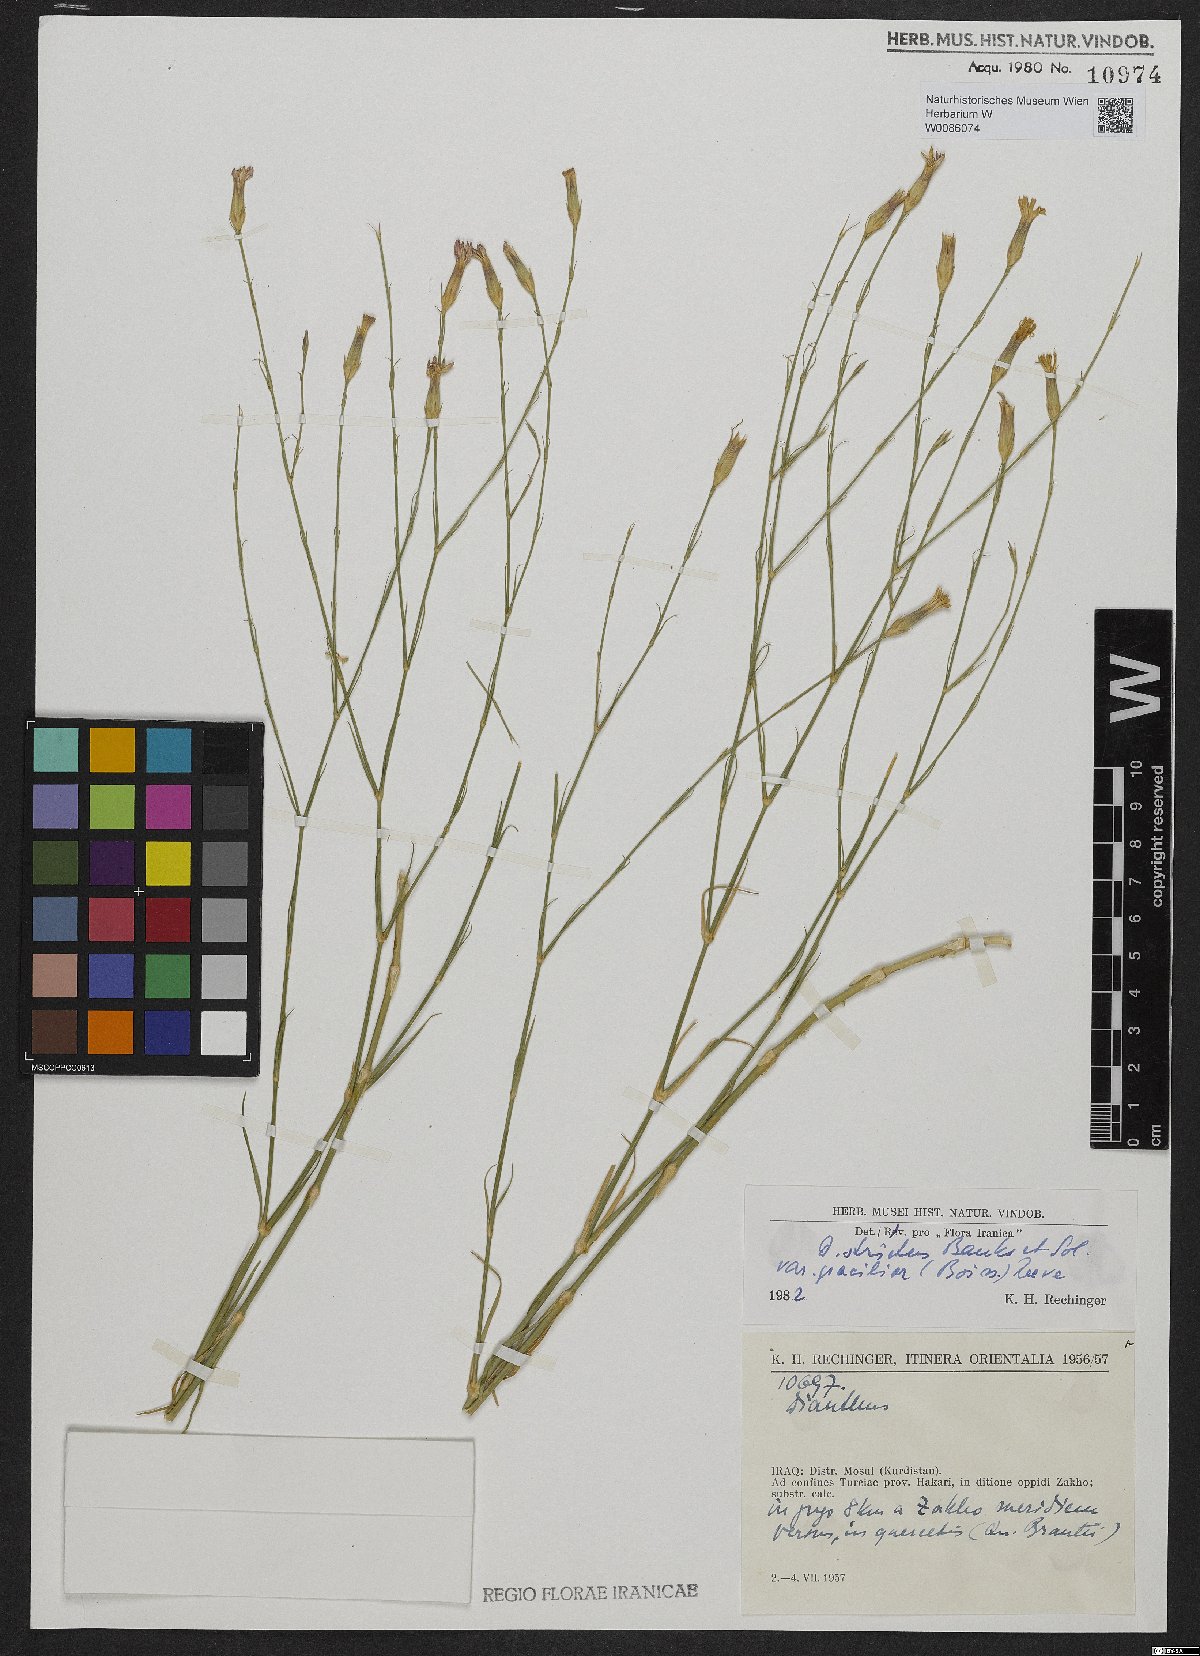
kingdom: Plantae
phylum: Tracheophyta
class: Magnoliopsida
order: Caryophyllales
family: Caryophyllaceae
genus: Dianthus
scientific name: Dianthus strictus
